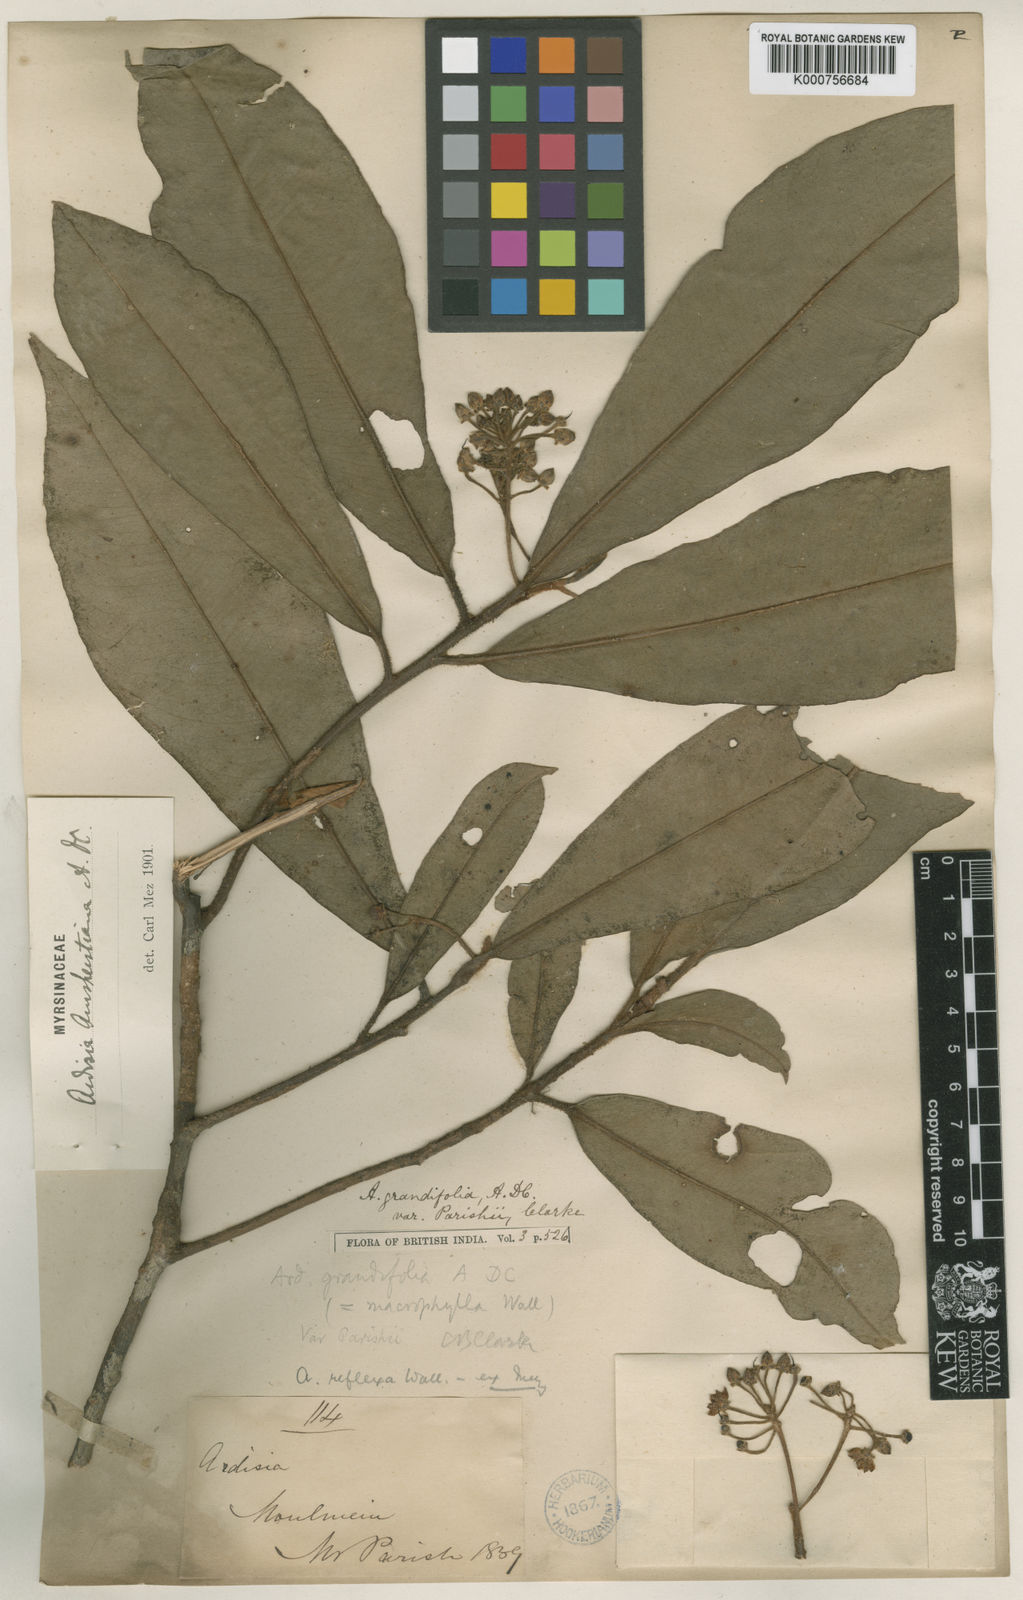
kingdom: Plantae
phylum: Tracheophyta
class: Magnoliopsida
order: Ericales
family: Primulaceae
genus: Ardisia
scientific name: Ardisia
